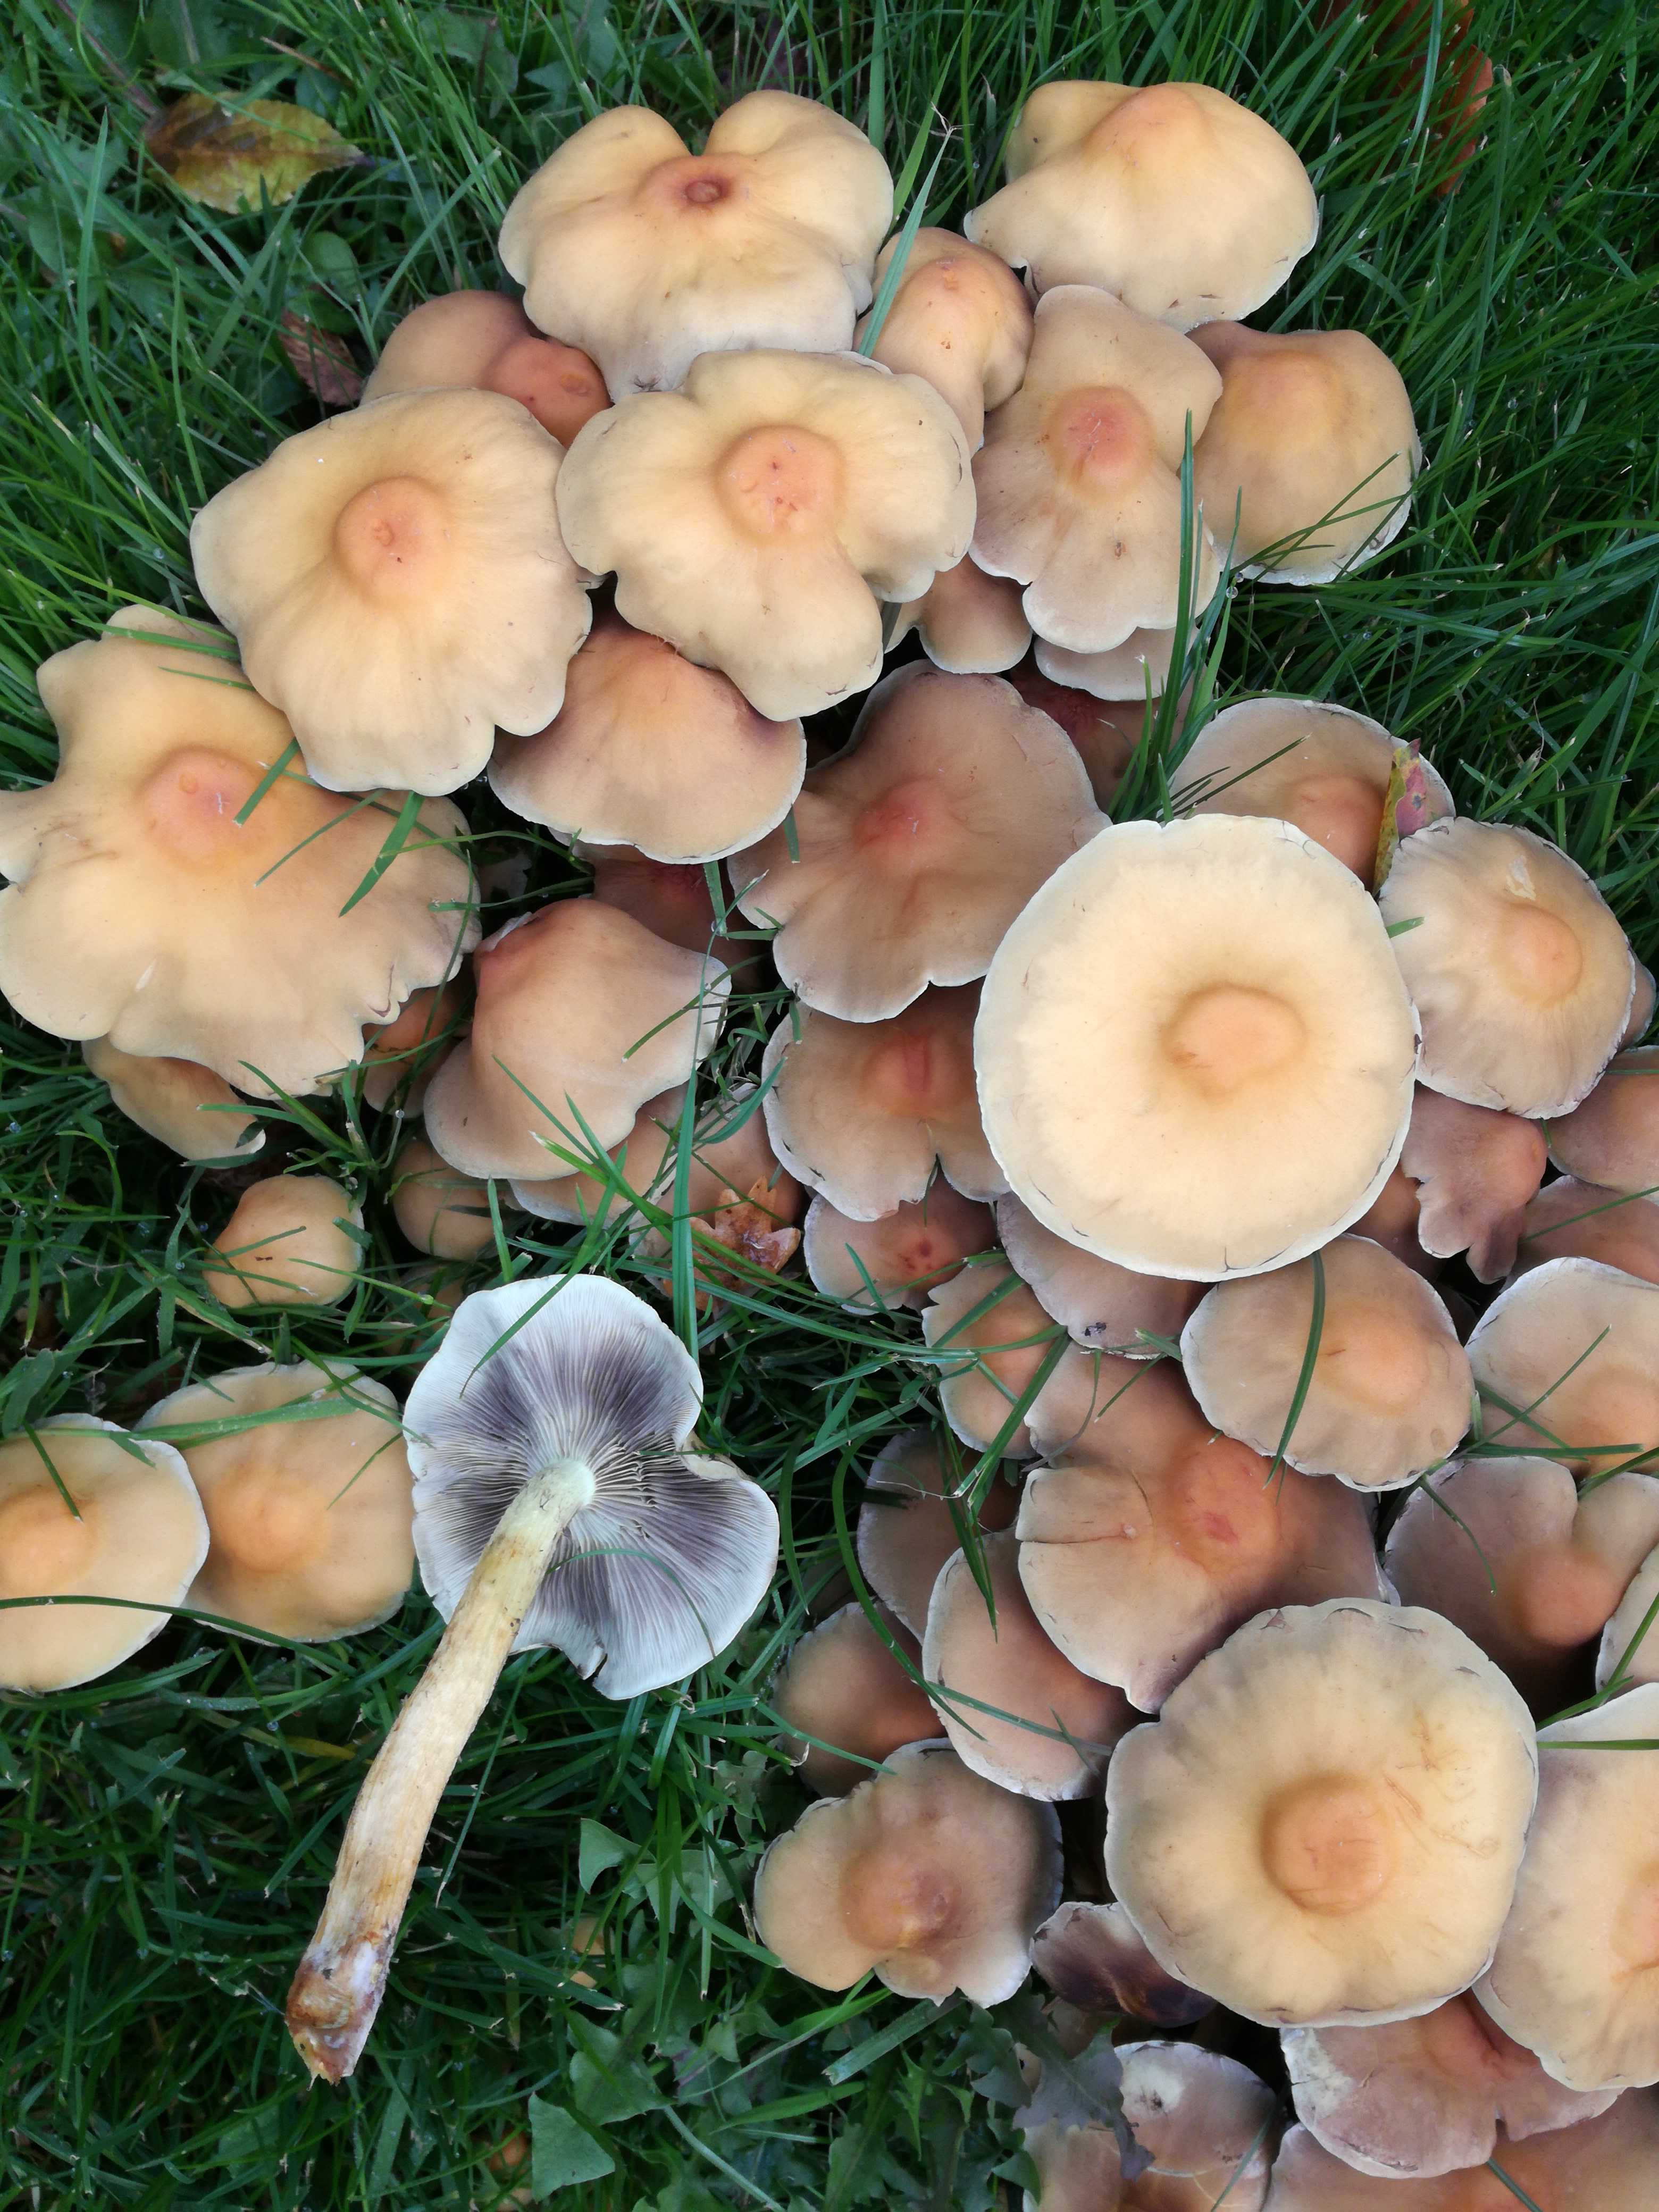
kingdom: Fungi
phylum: Basidiomycota
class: Agaricomycetes
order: Agaricales
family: Strophariaceae
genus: Hypholoma
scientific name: Hypholoma fasciculare
